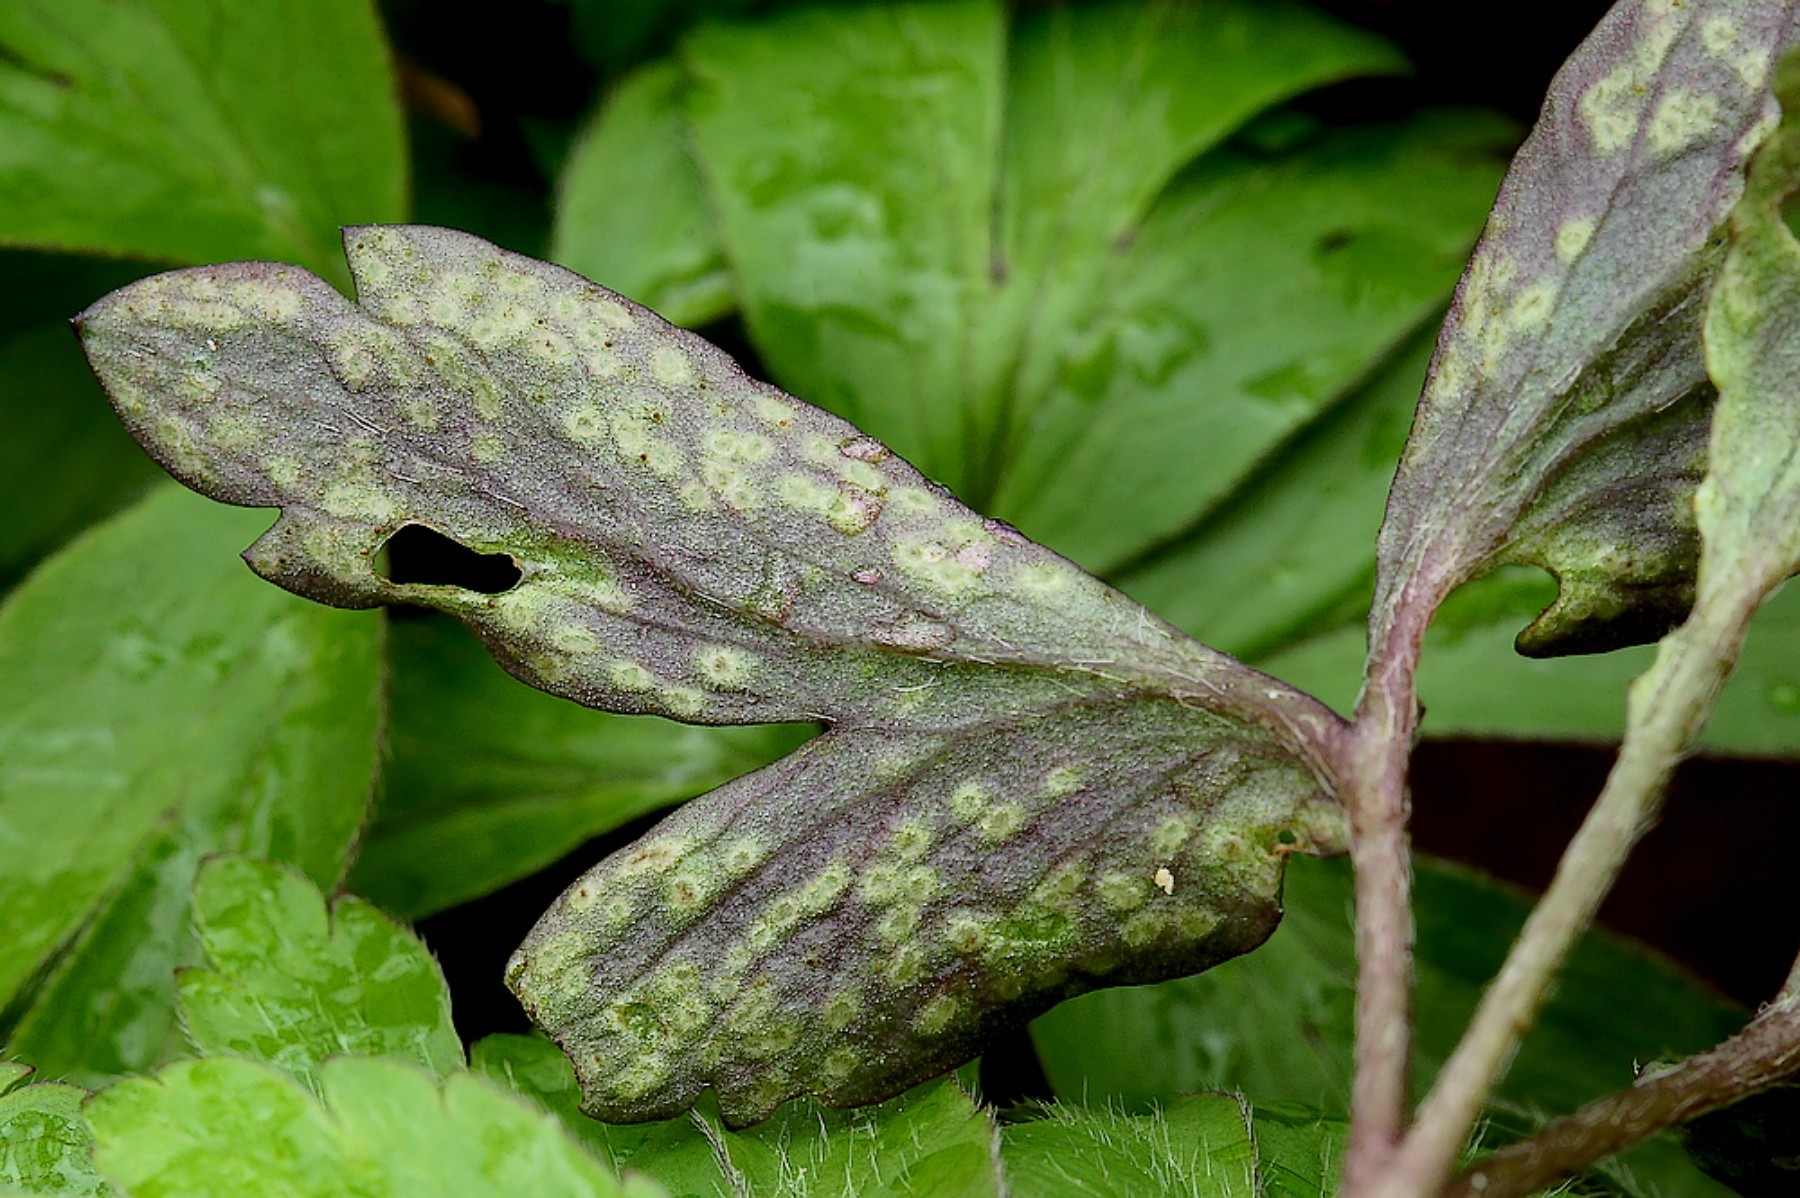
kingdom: Fungi
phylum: Basidiomycota
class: Pucciniomycetes
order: Pucciniales
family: Ochropsoraceae
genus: Ochropsora
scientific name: Ochropsora ariae
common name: anemone-okkerpletrust
